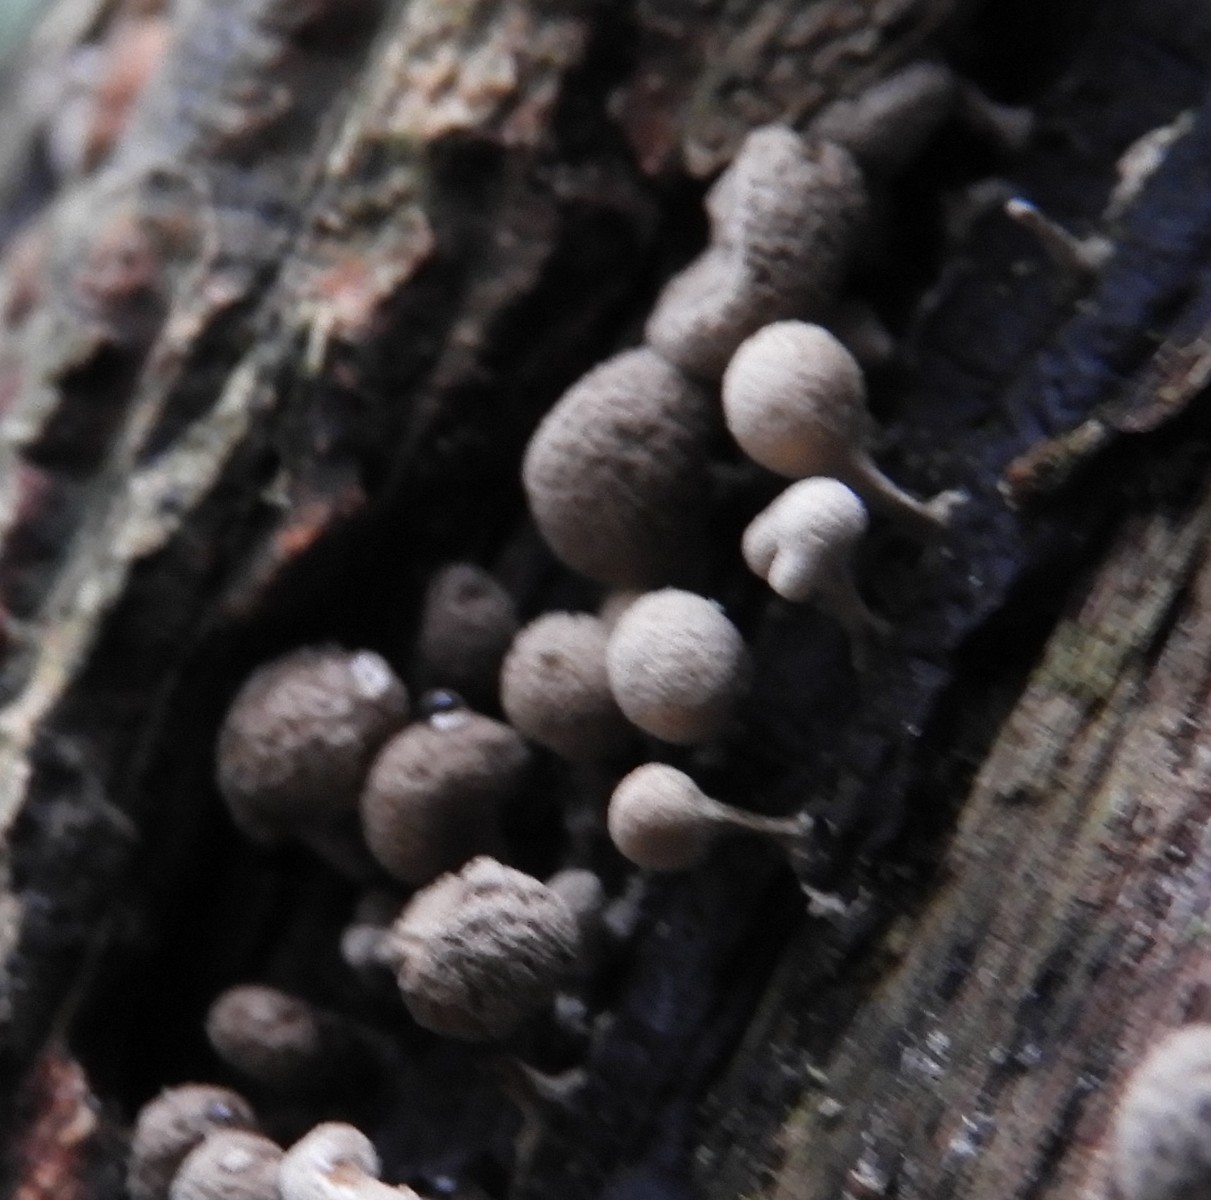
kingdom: Fungi
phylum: Basidiomycota
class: Atractiellomycetes
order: Atractiellales
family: Phleogenaceae
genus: Phleogena
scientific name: Phleogena faginea
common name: pudderkølle
